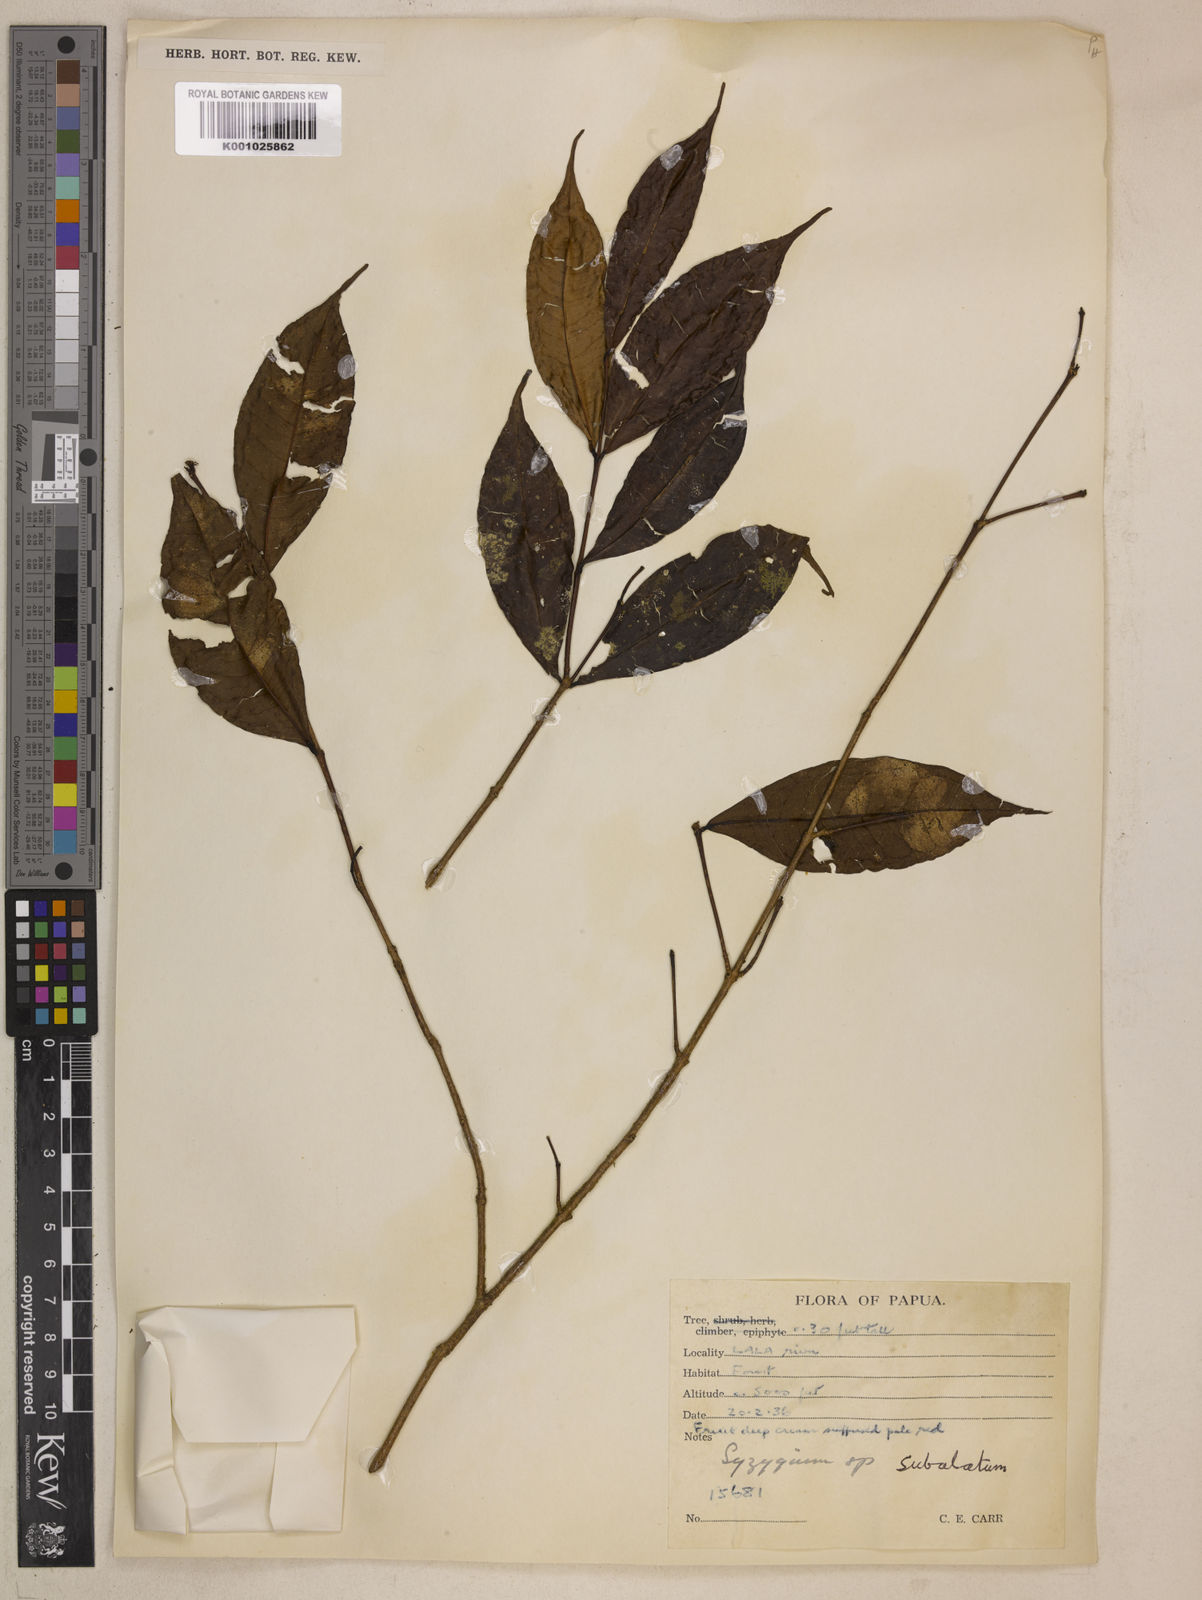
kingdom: Plantae
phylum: Tracheophyta
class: Magnoliopsida
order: Myrtales
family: Myrtaceae
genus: Syzygium
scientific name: Syzygium subalatum
